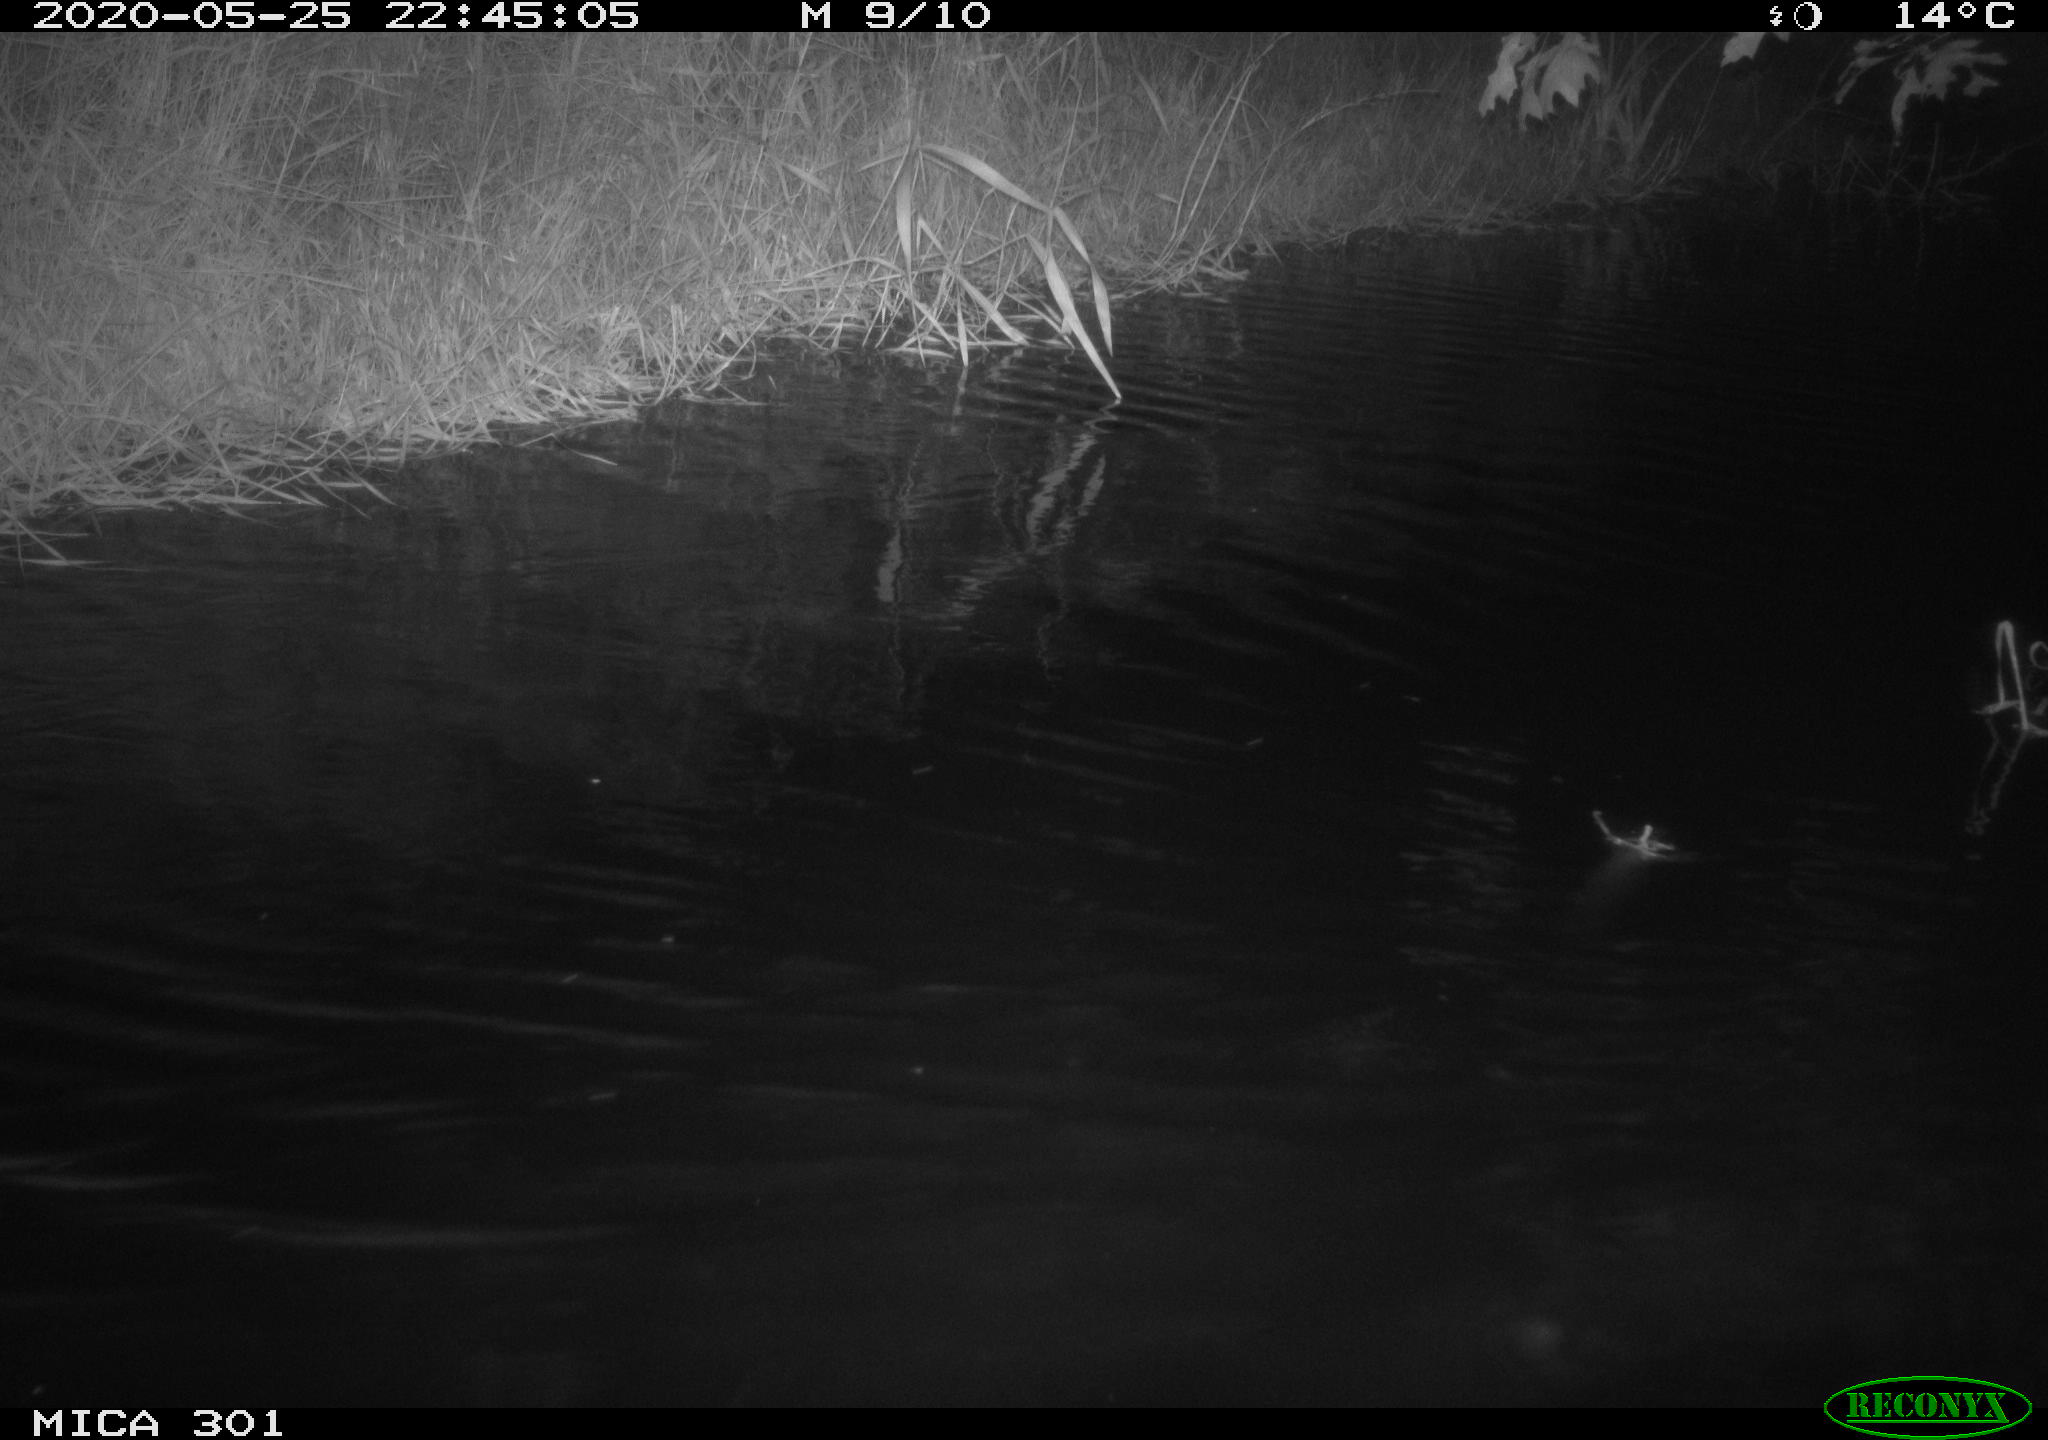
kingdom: Animalia
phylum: Chordata
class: Mammalia
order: Rodentia
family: Castoridae
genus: Castor
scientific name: Castor fiber
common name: Eurasian beaver
